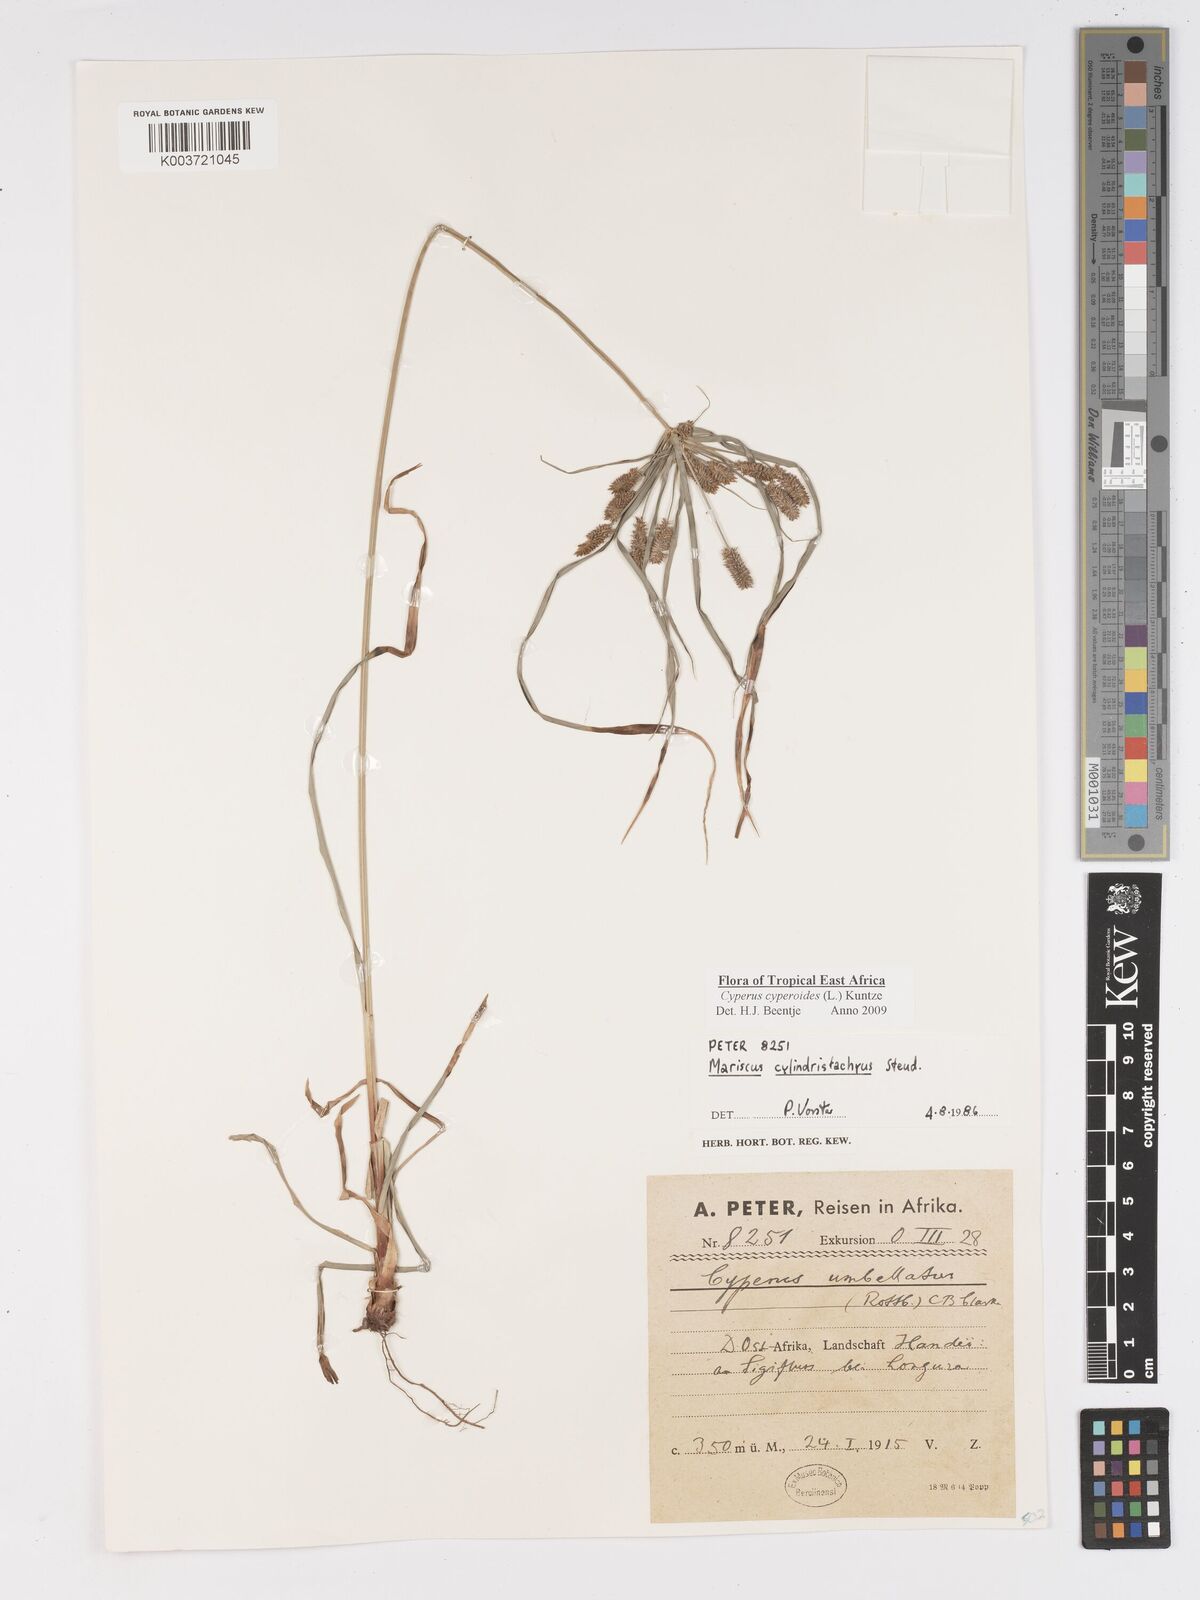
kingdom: Plantae
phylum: Tracheophyta
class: Liliopsida
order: Poales
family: Cyperaceae
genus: Cyperus
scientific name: Cyperus cyperoides
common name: Pacific island flat sedge
